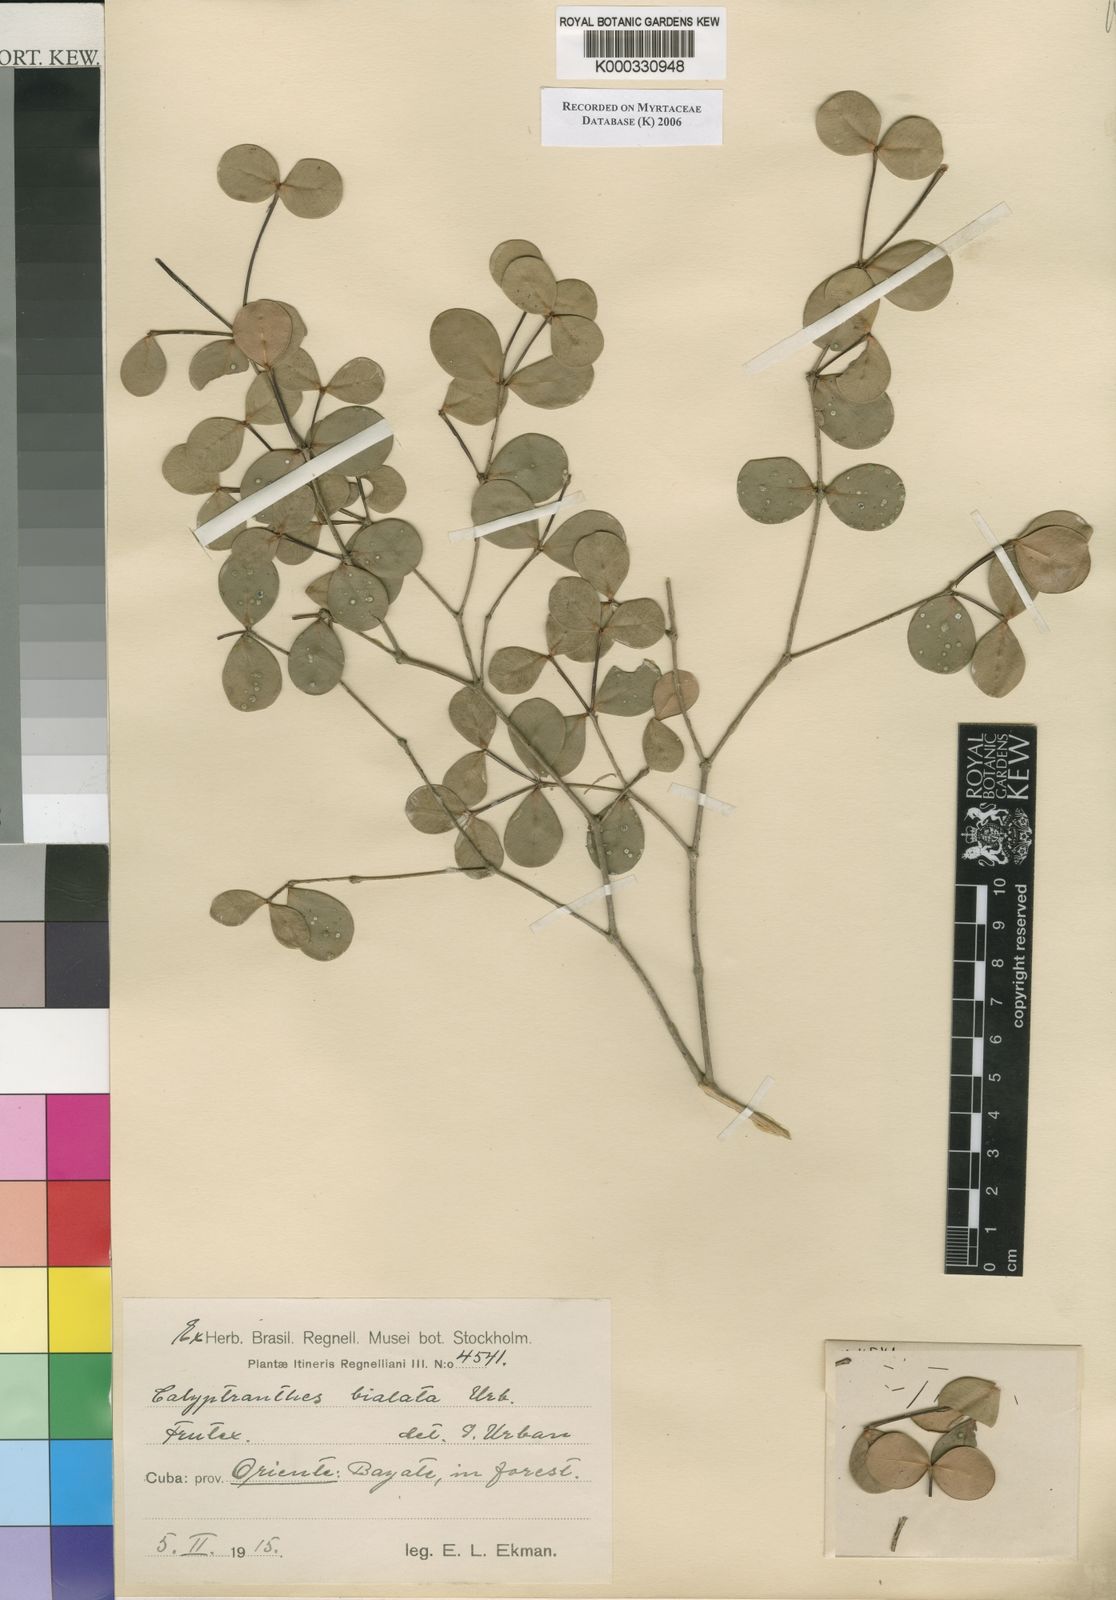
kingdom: Plantae
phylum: Tracheophyta
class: Magnoliopsida
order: Myrtales
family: Myrtaceae
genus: Myrcia
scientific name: Myrcia bialata
